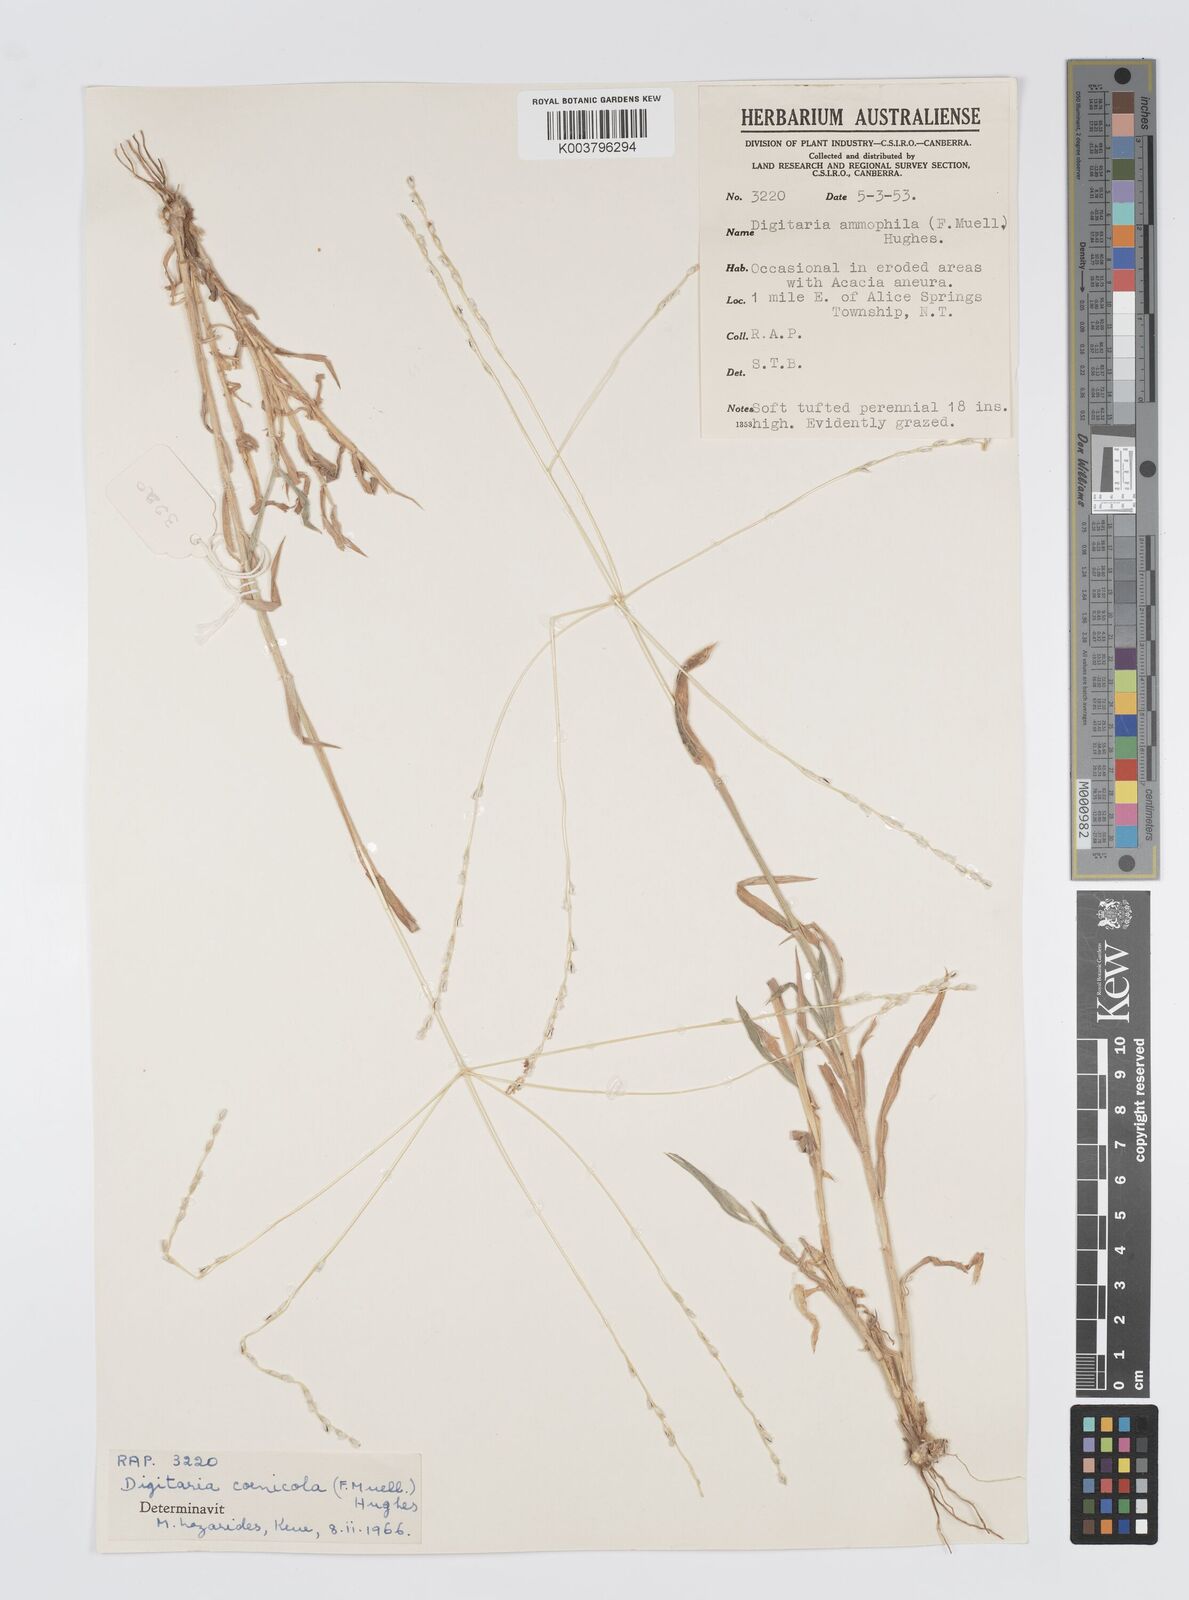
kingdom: Plantae
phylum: Tracheophyta
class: Liliopsida
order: Poales
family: Poaceae
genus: Digitaria
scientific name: Digitaria coenicola
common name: Kanta grass
